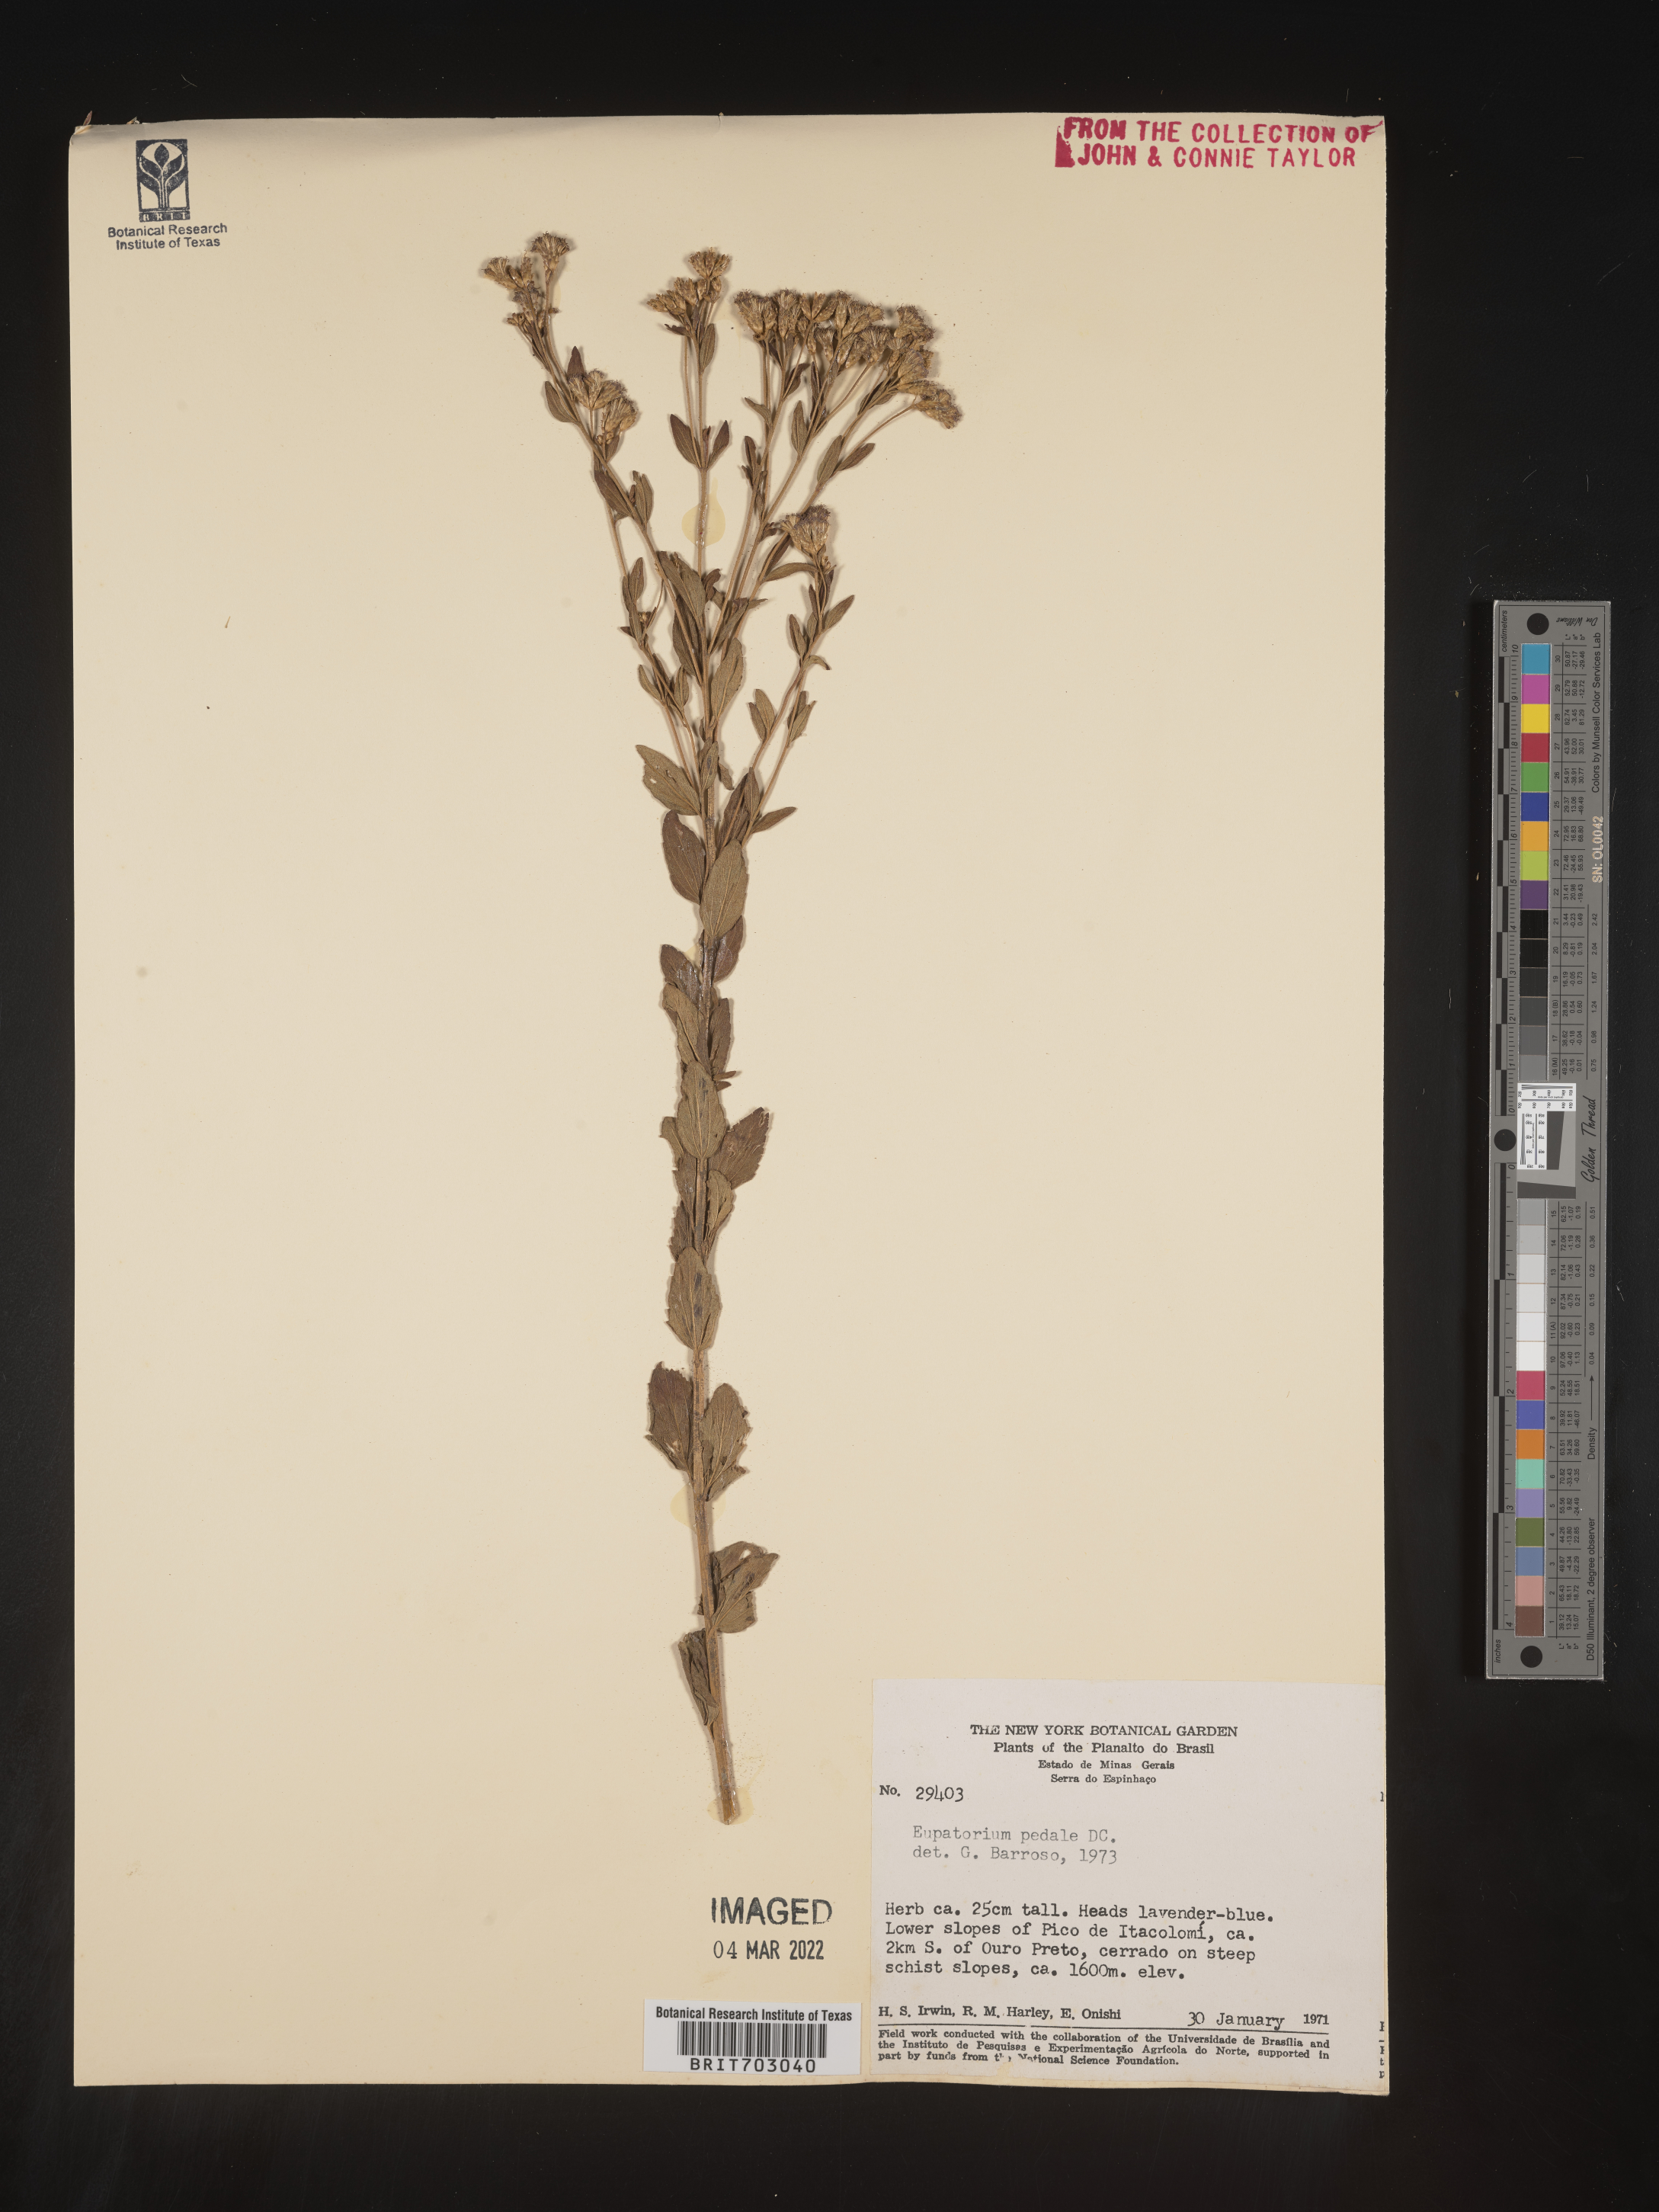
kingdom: Plantae
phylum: Tracheophyta
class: Magnoliopsida
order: Asterales
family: Asteraceae
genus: Eupatorium
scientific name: Eupatorium
